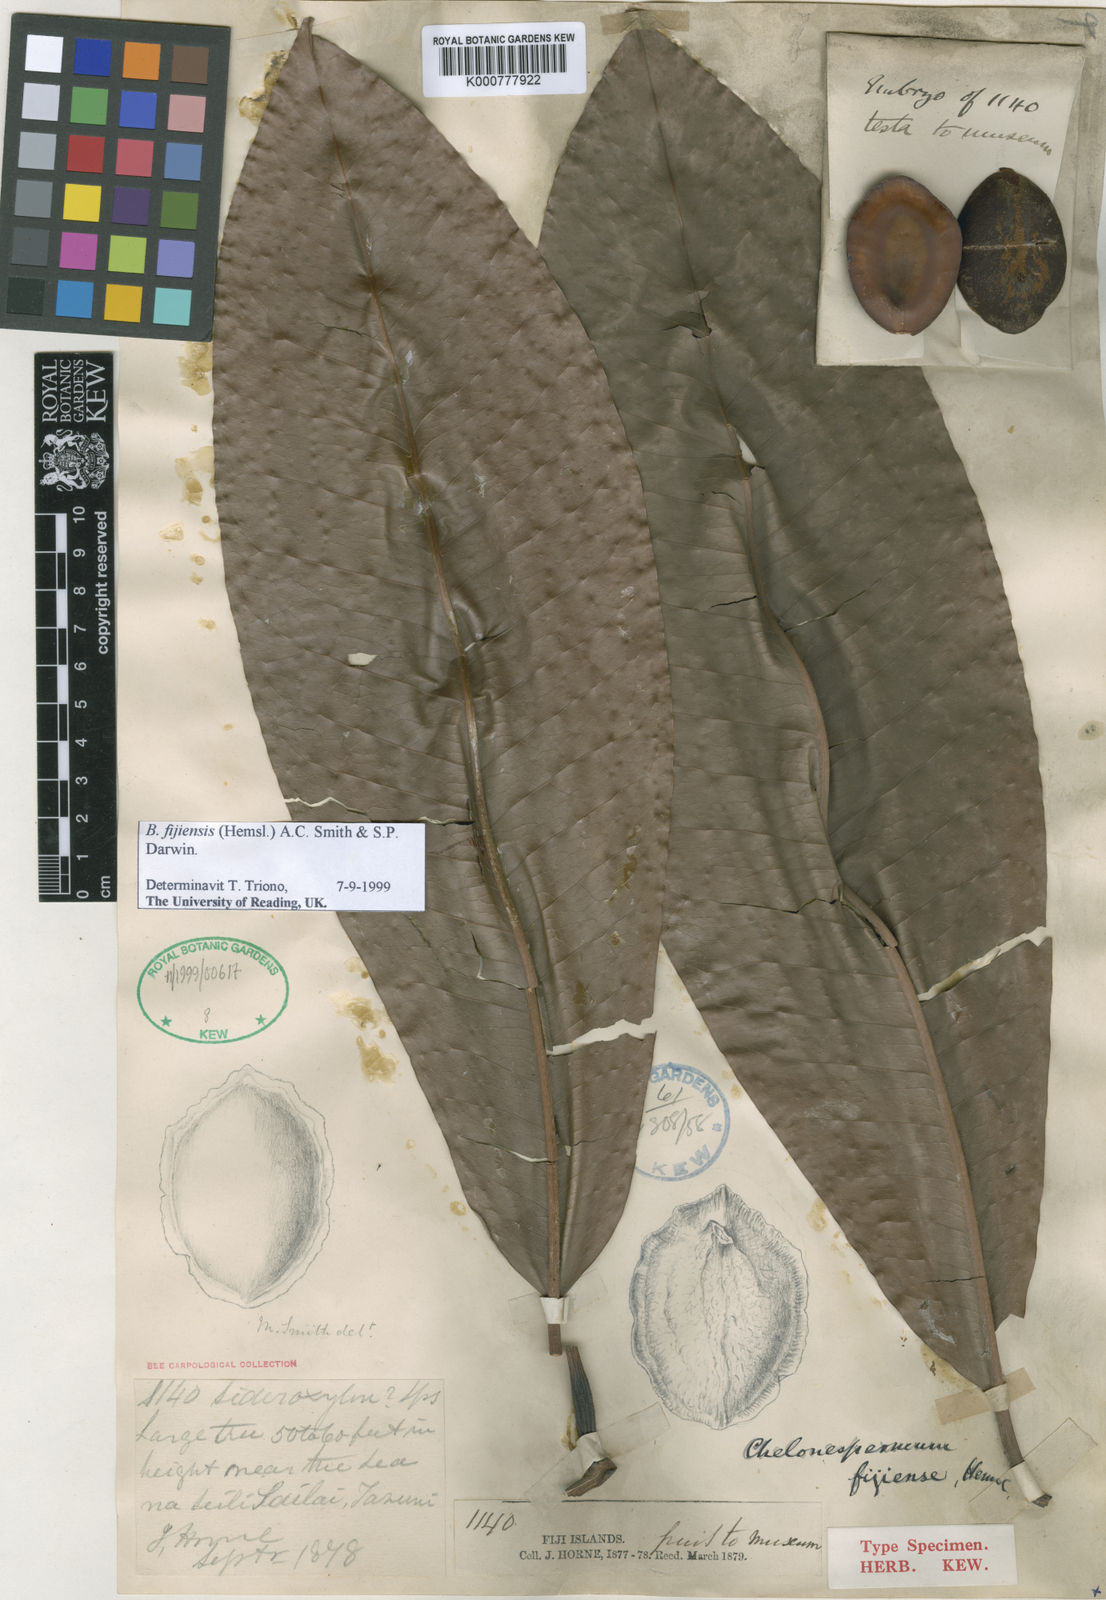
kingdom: Plantae
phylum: Tracheophyta
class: Magnoliopsida
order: Ericales
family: Sapotaceae
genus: Burckella
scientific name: Burckella fijiensis
